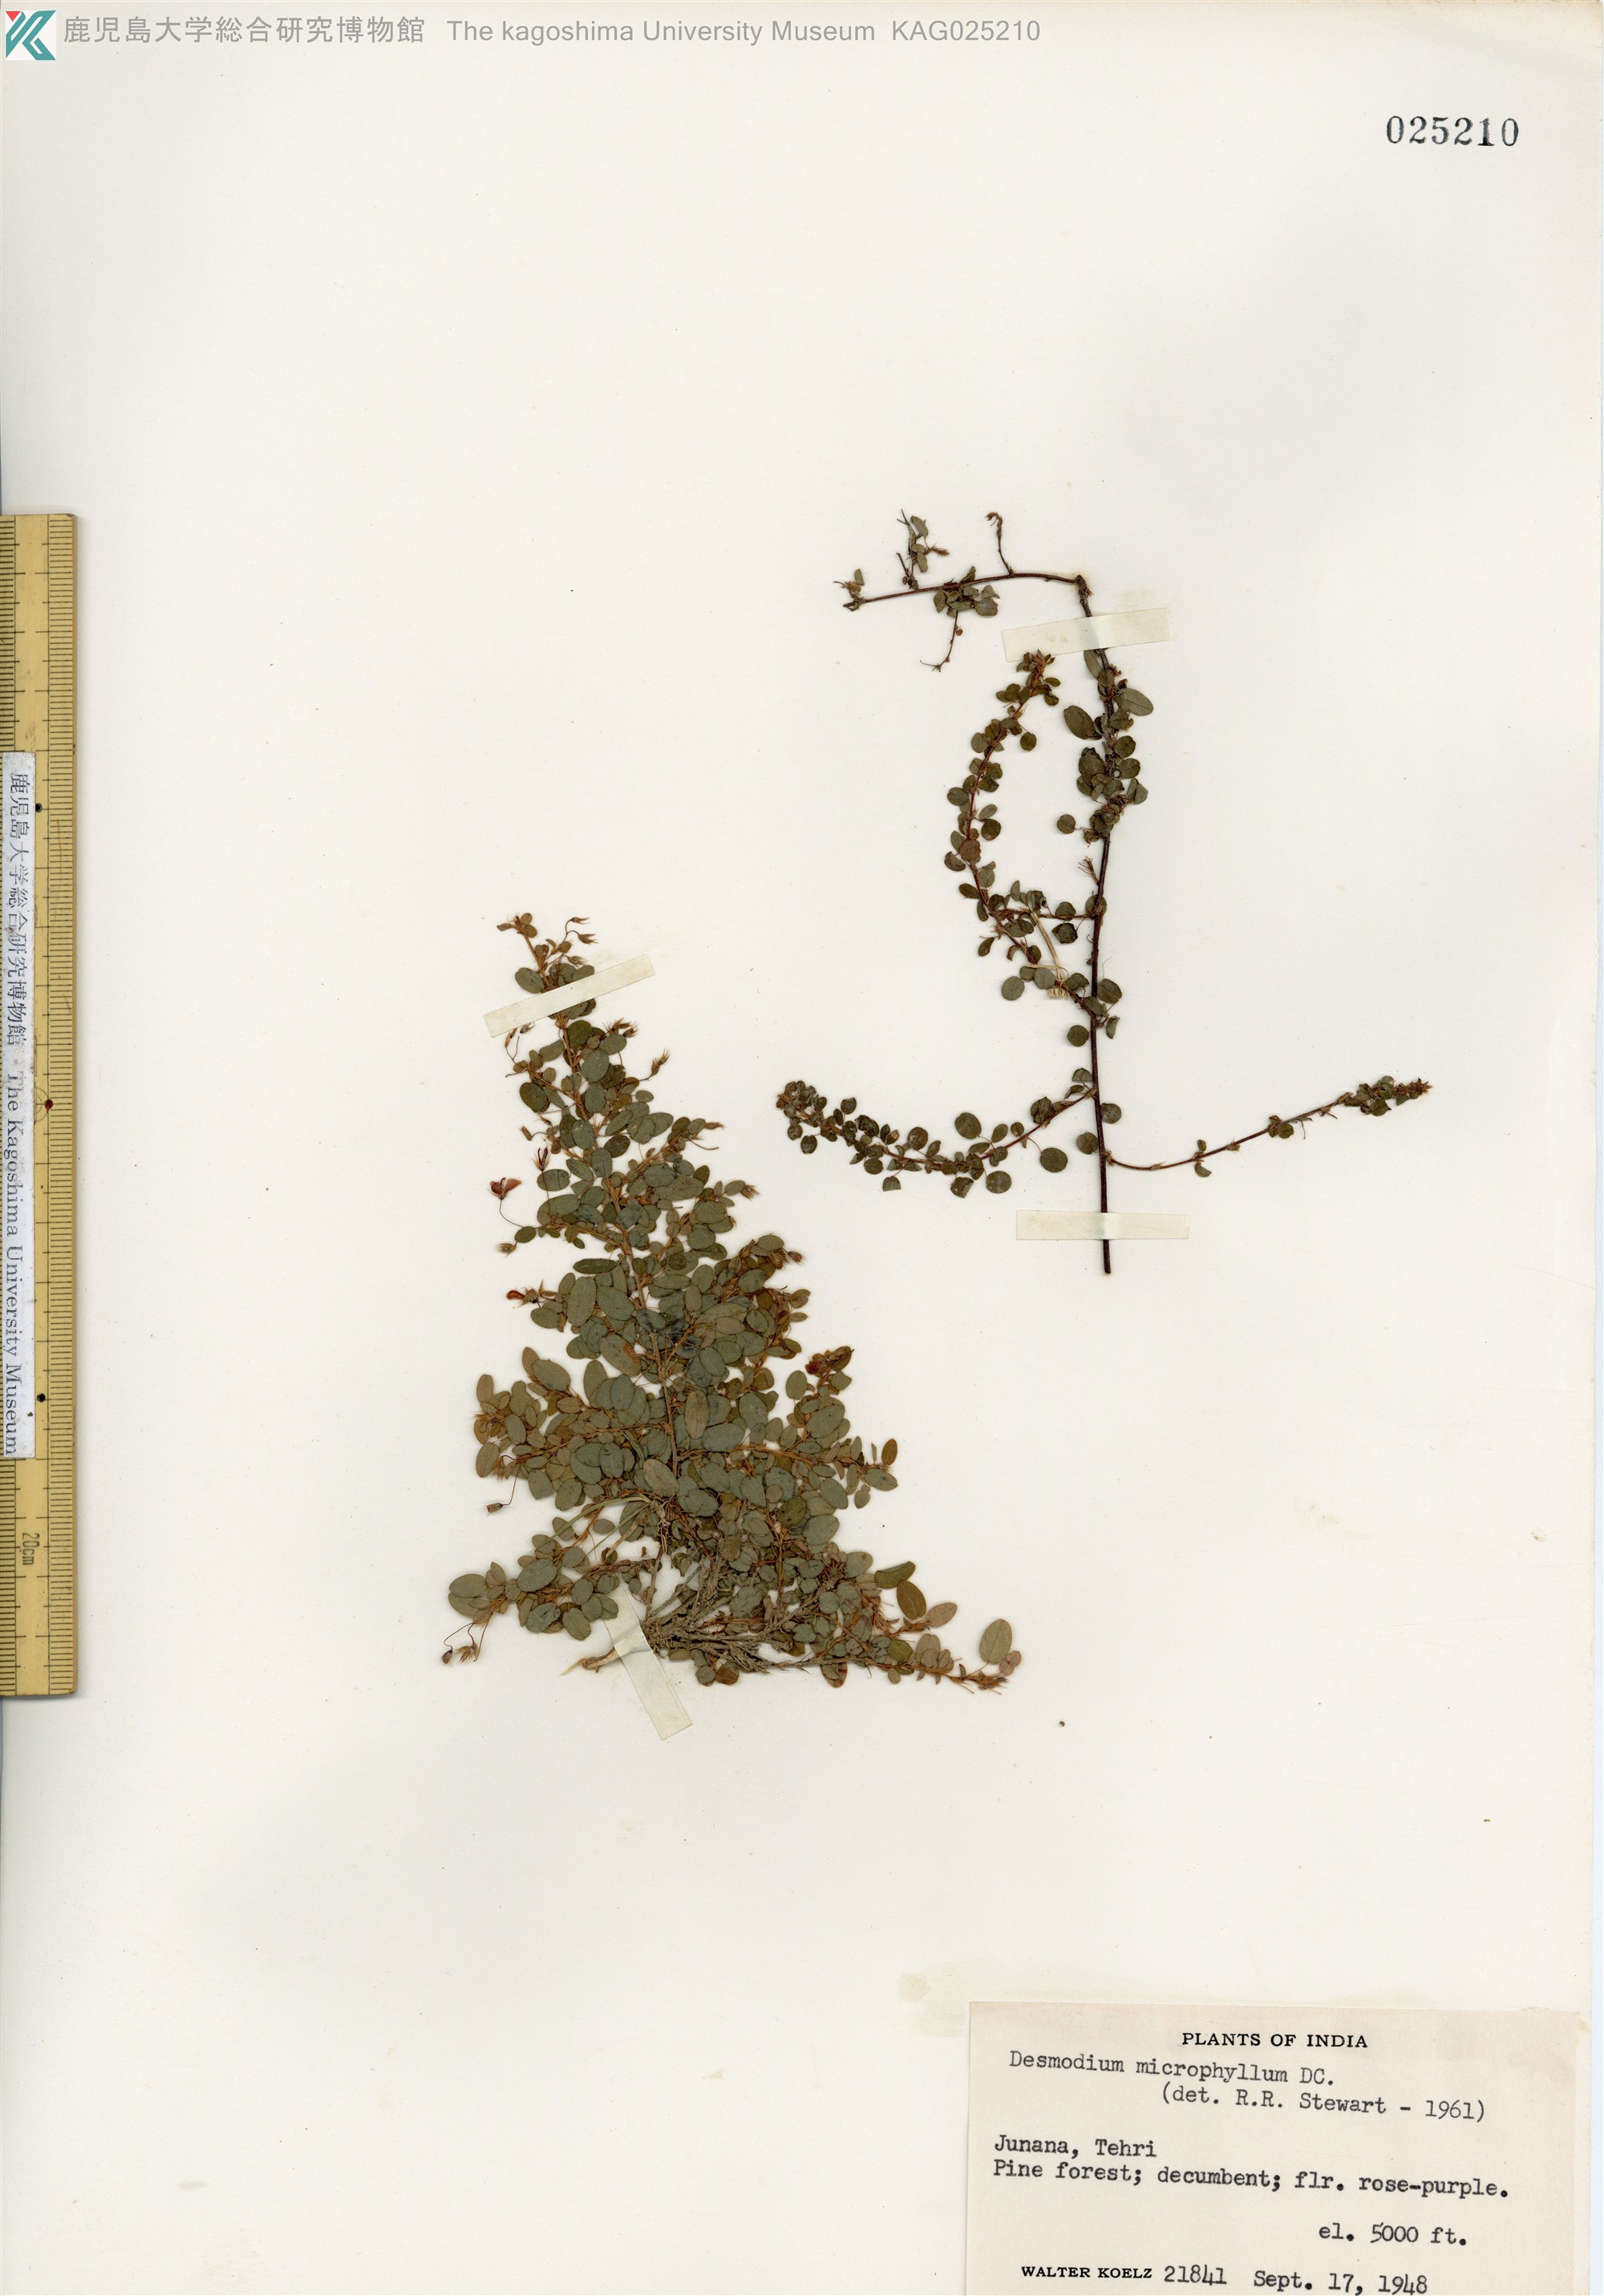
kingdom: Plantae
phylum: Tracheophyta
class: Magnoliopsida
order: Fabales
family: Fabaceae
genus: Leptodesmia
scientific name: Leptodesmia microphylla
